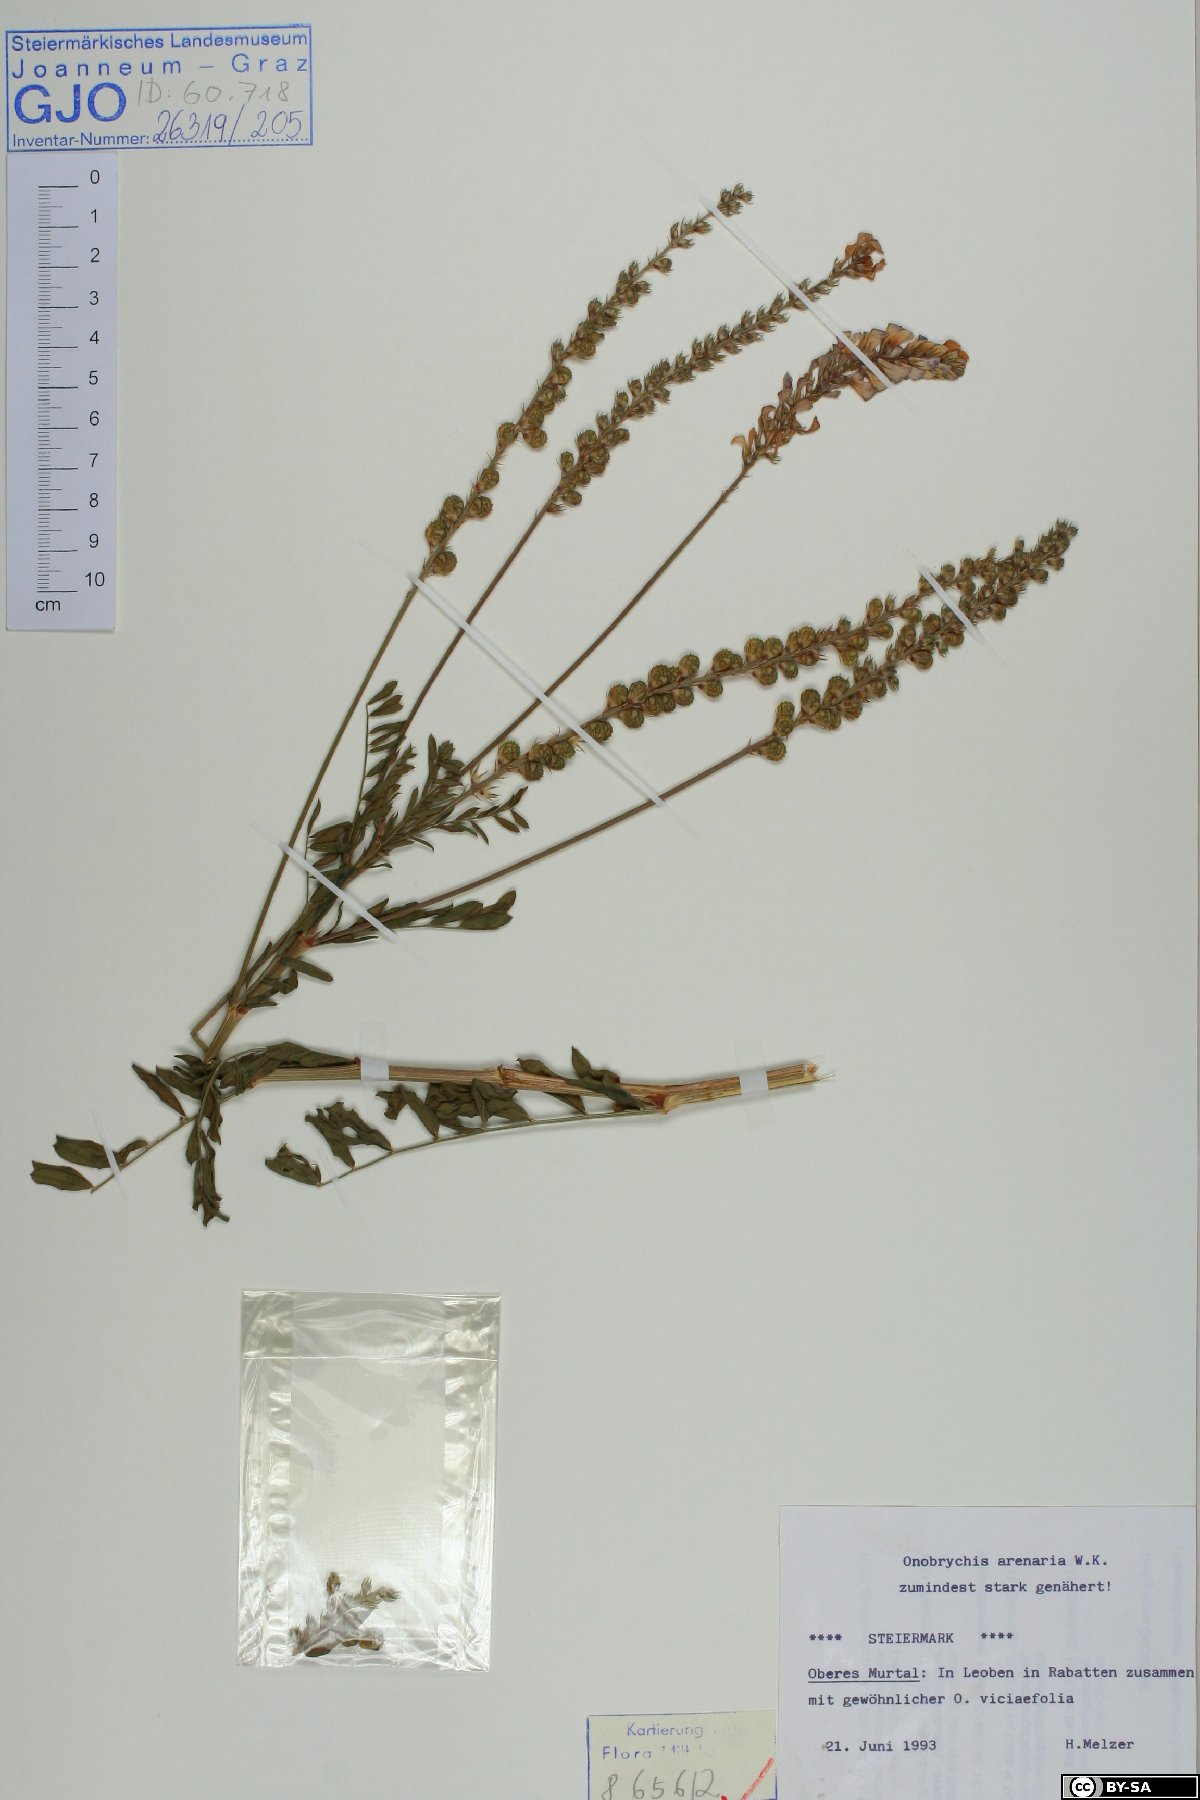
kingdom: Plantae
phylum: Tracheophyta
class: Magnoliopsida
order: Fabales
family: Fabaceae
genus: Onobrychis
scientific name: Onobrychis arenaria
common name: Sand esparcet
